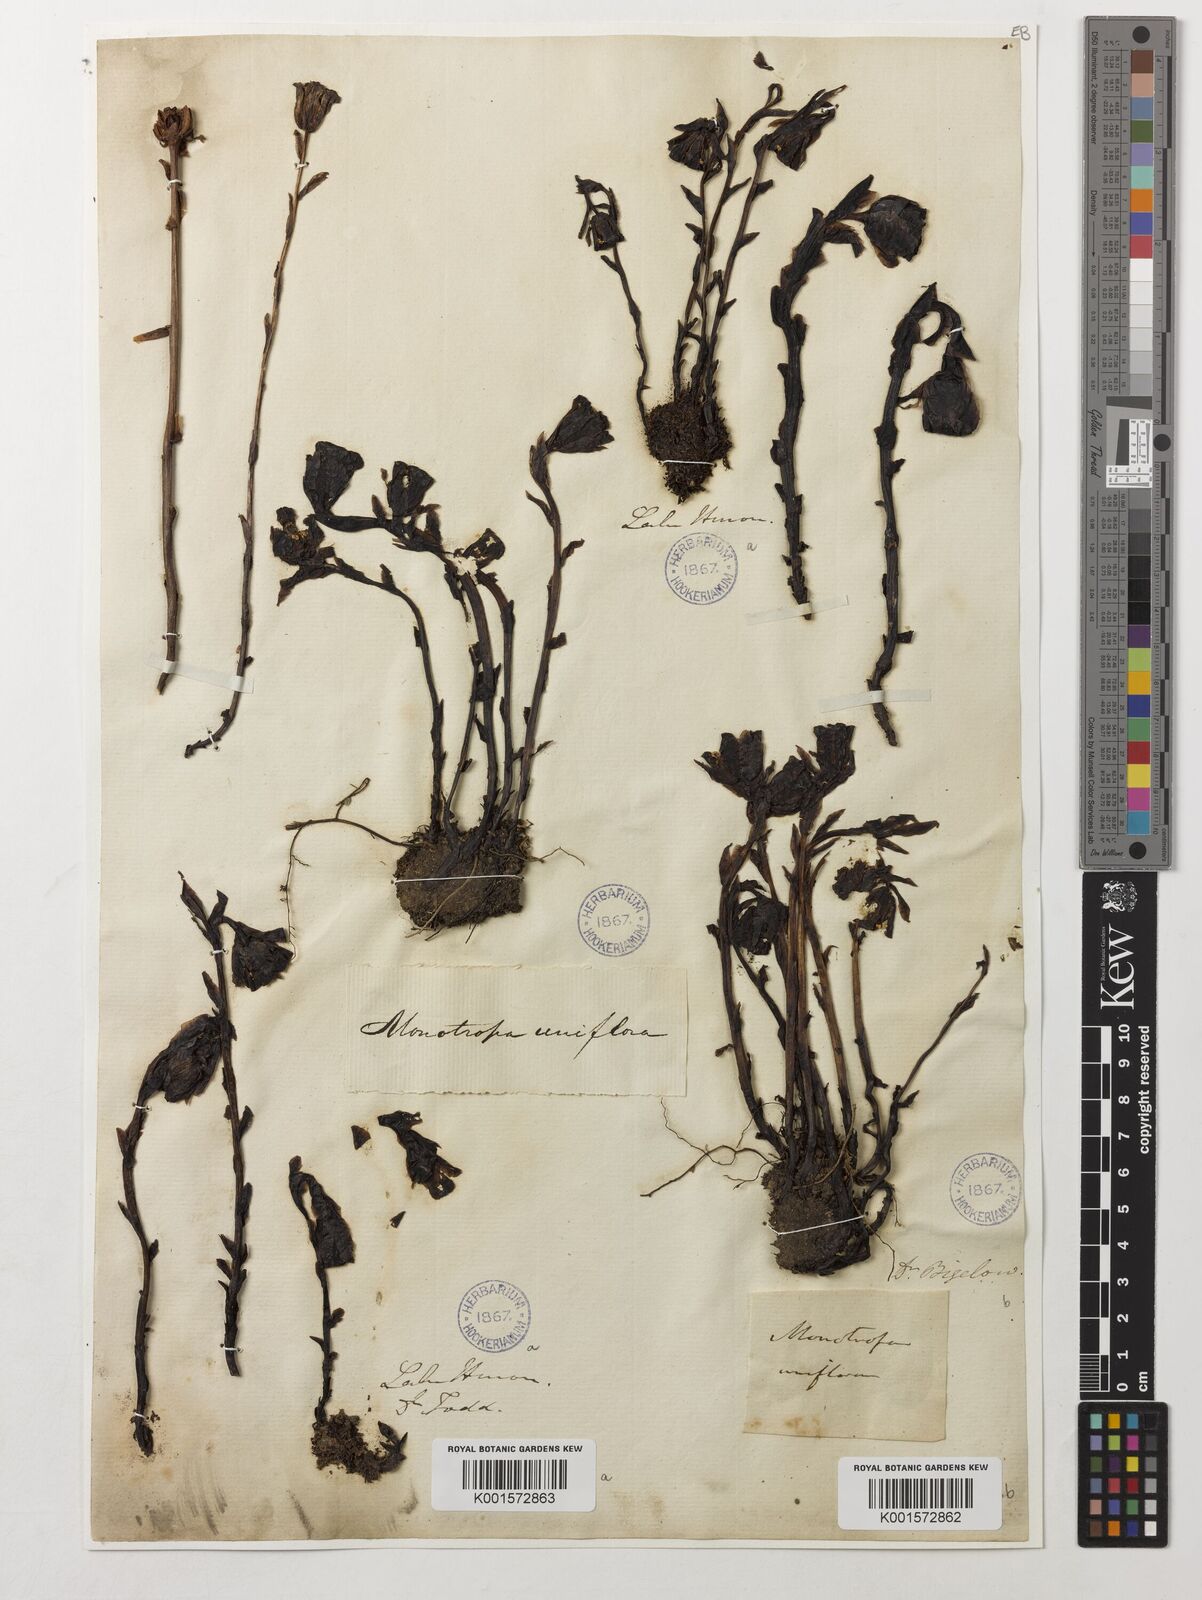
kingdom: Plantae
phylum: Tracheophyta
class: Magnoliopsida
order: Ericales
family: Ericaceae
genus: Monotropa
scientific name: Monotropa uniflora
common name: Convulsion root
